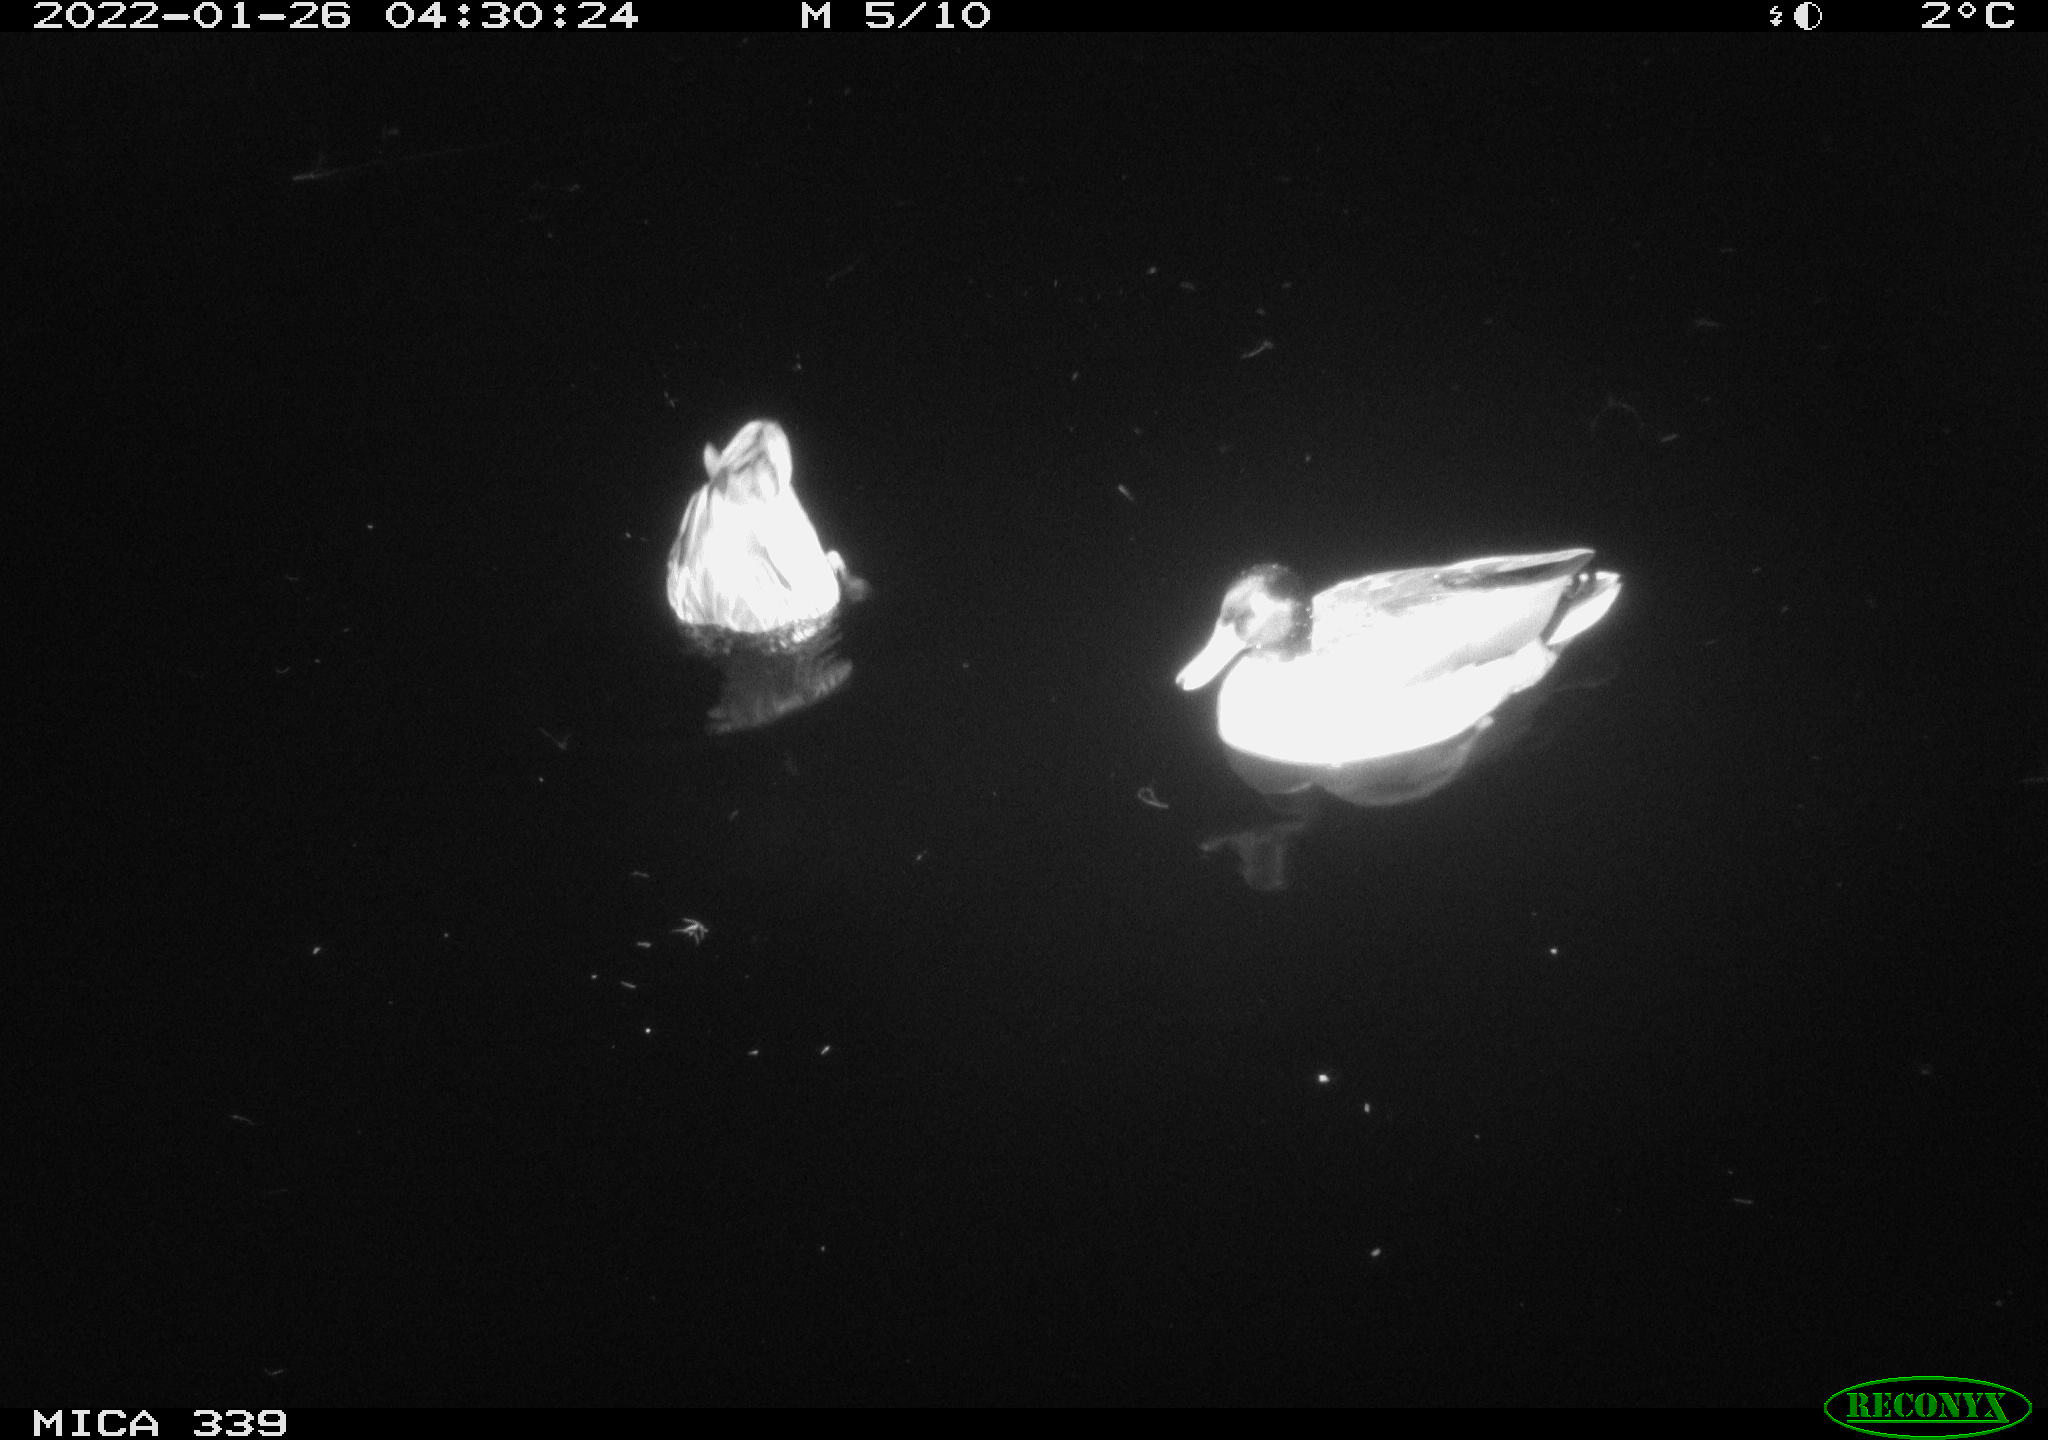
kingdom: Animalia
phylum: Chordata
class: Aves
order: Anseriformes
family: Anatidae
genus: Anas
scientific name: Anas platyrhynchos
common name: Mallard
